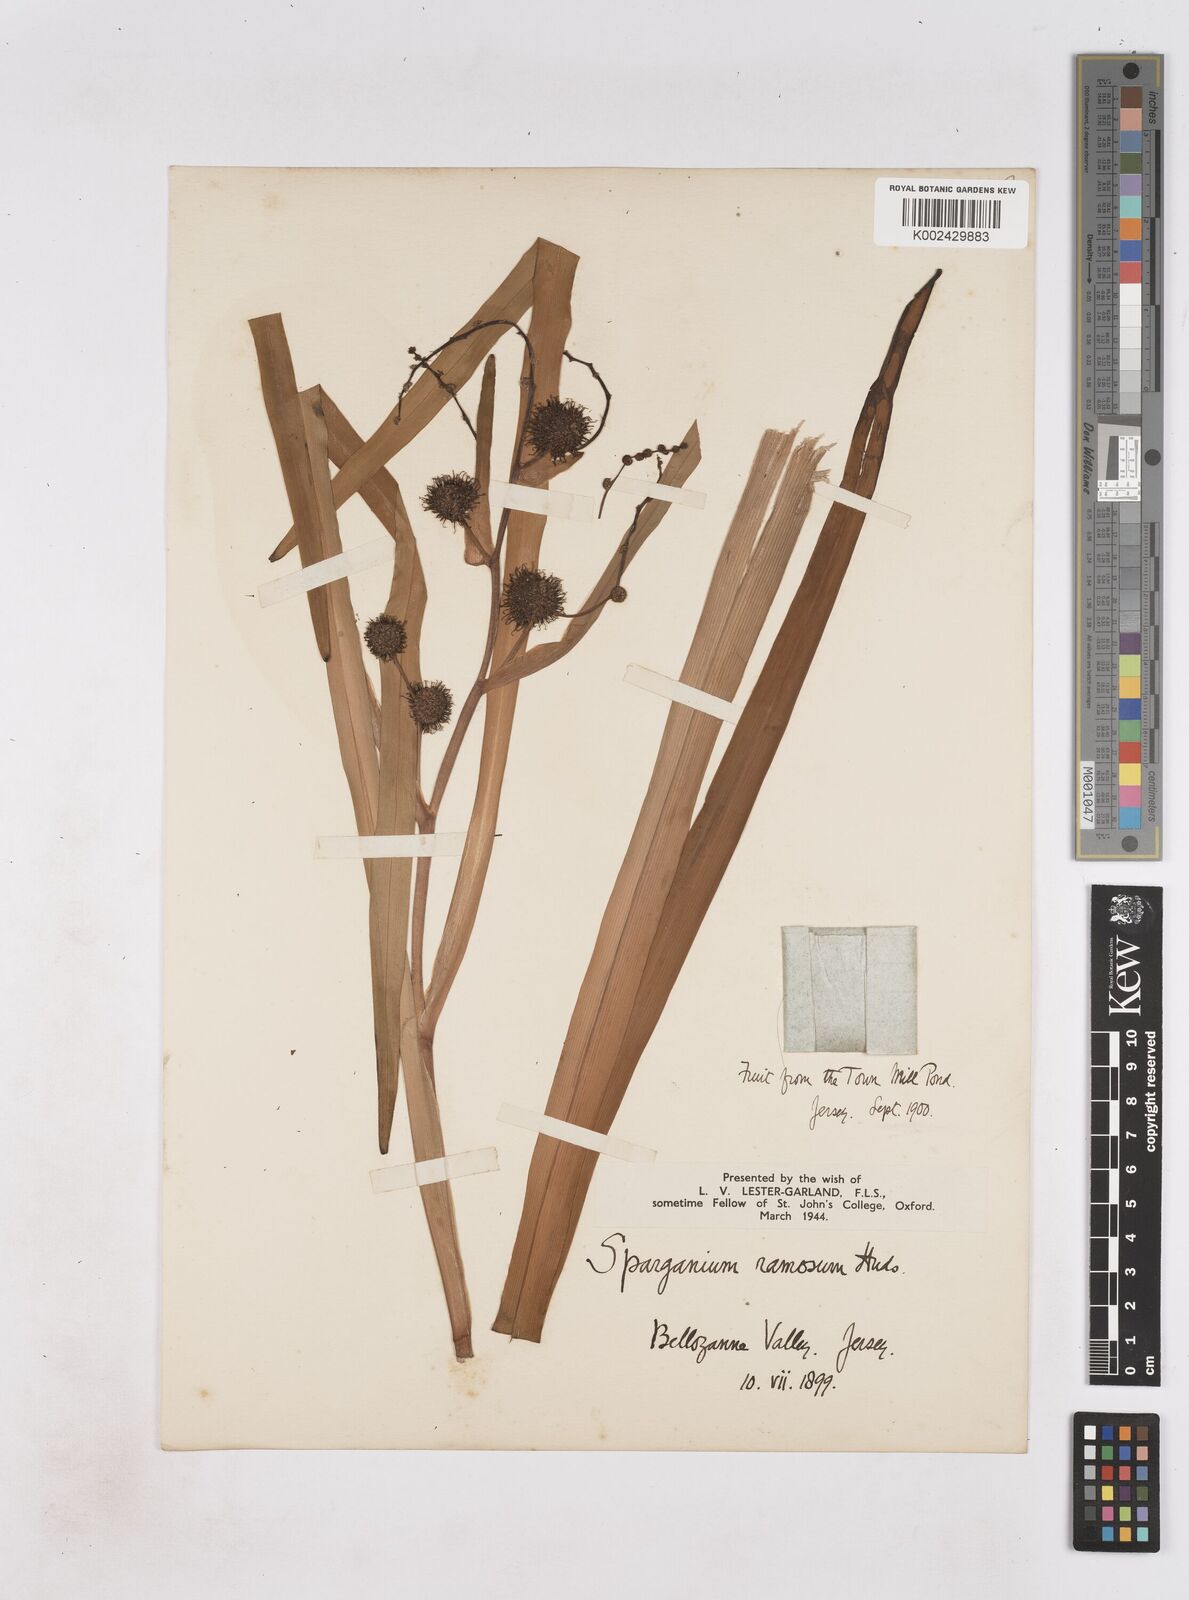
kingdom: Plantae
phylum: Tracheophyta
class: Liliopsida
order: Poales
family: Typhaceae
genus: Sparganium
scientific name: Sparganium erectum
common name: Branched bur-reed
